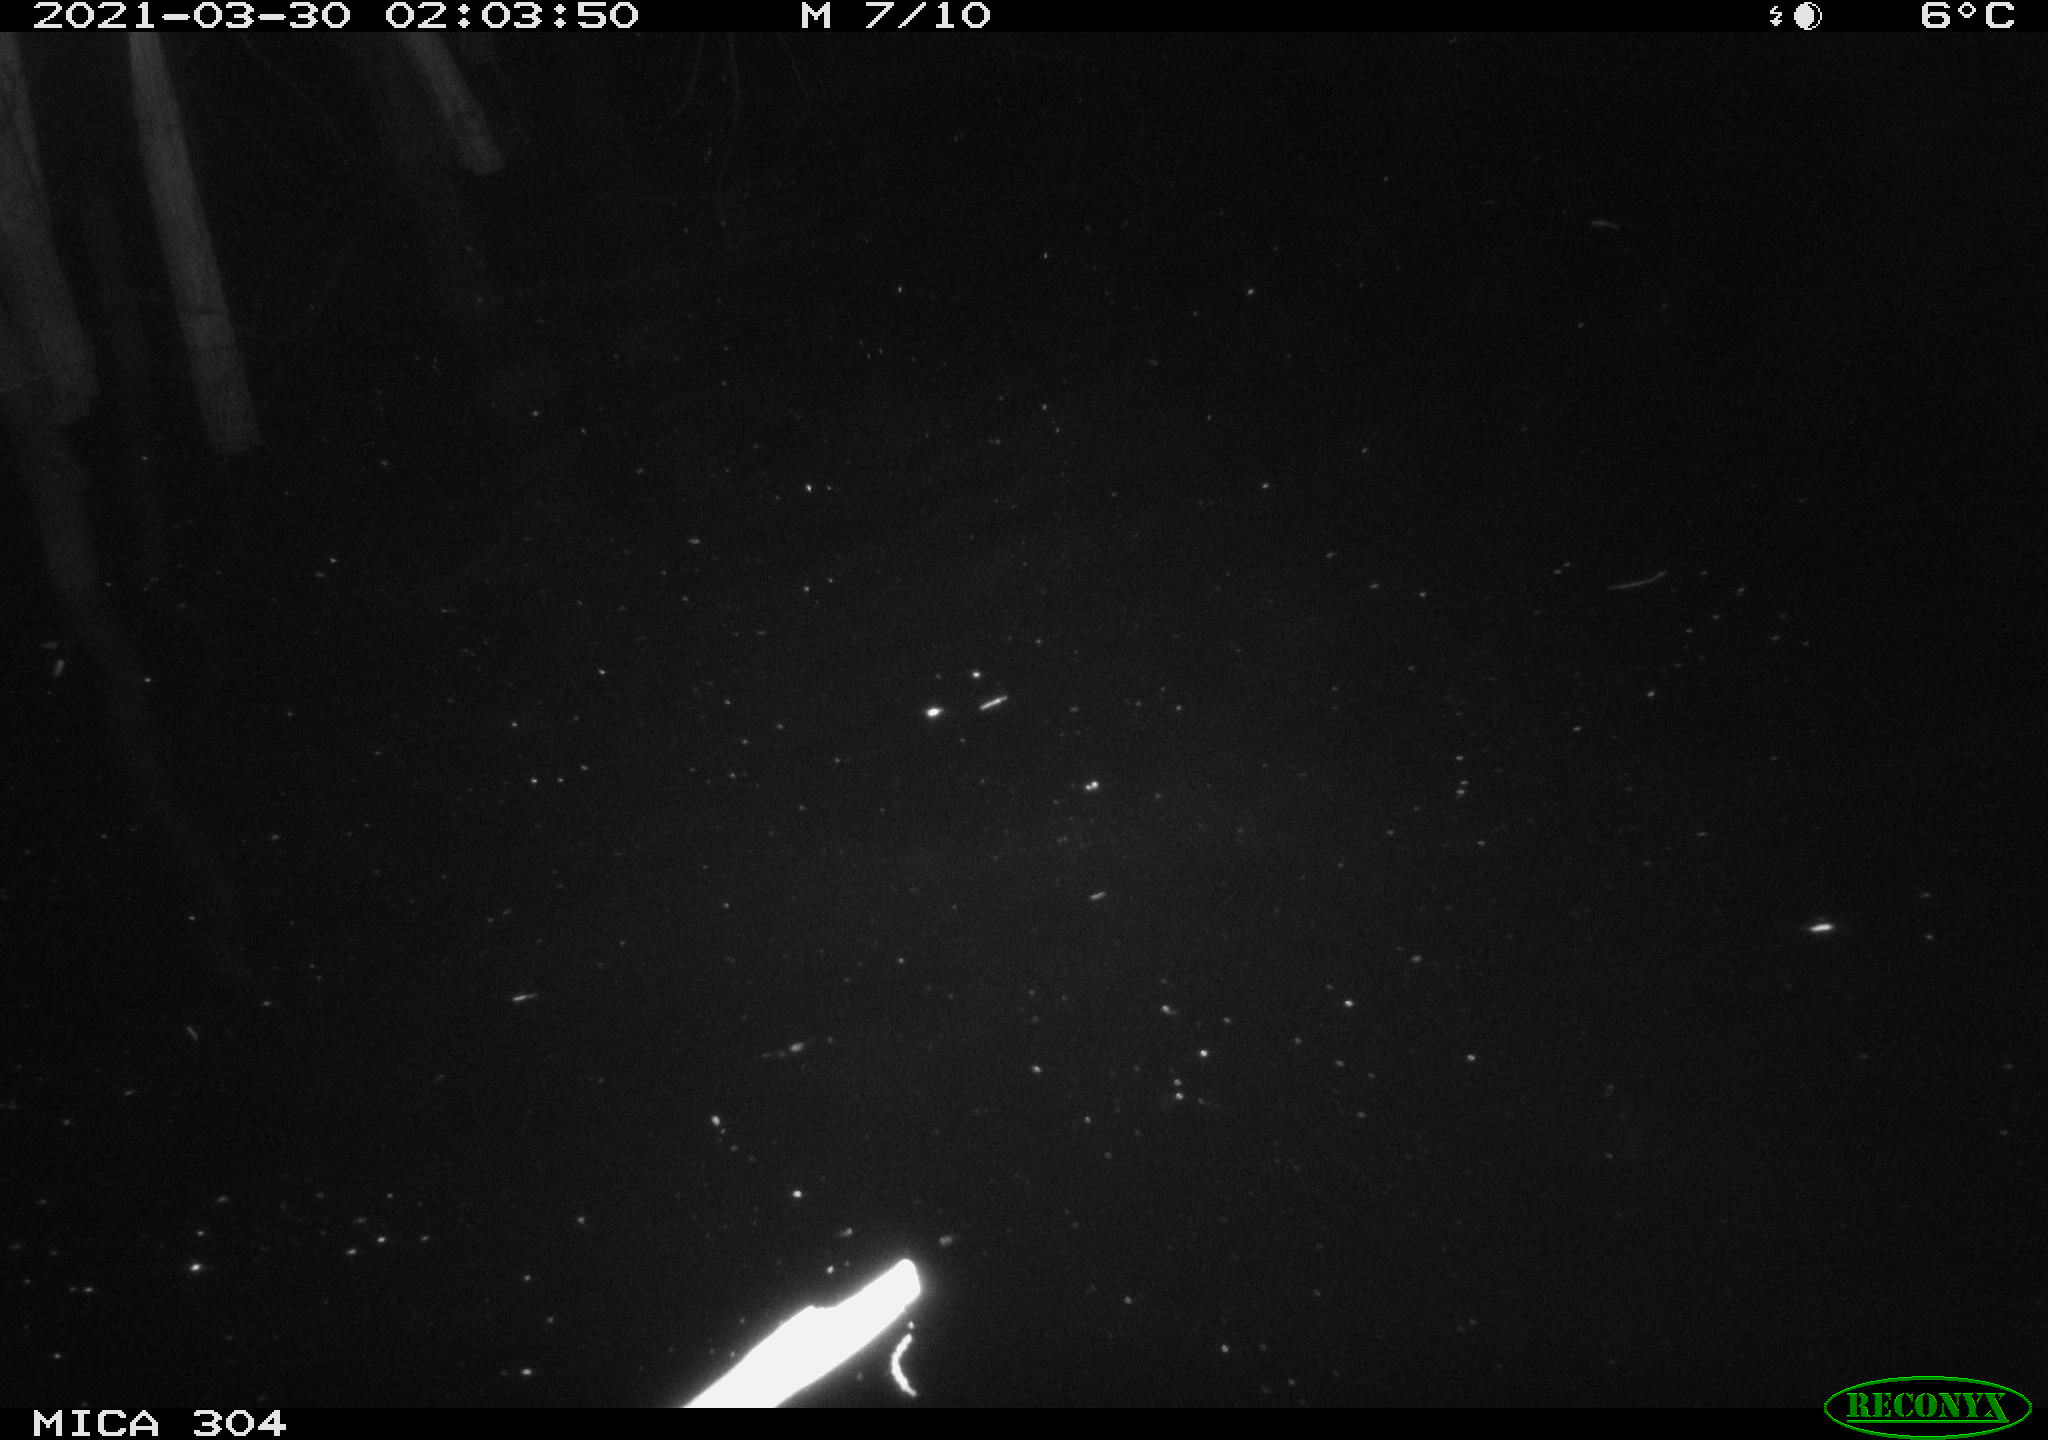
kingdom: Animalia
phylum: Chordata
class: Aves
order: Anseriformes
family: Anatidae
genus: Anas
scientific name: Anas platyrhynchos
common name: Mallard
